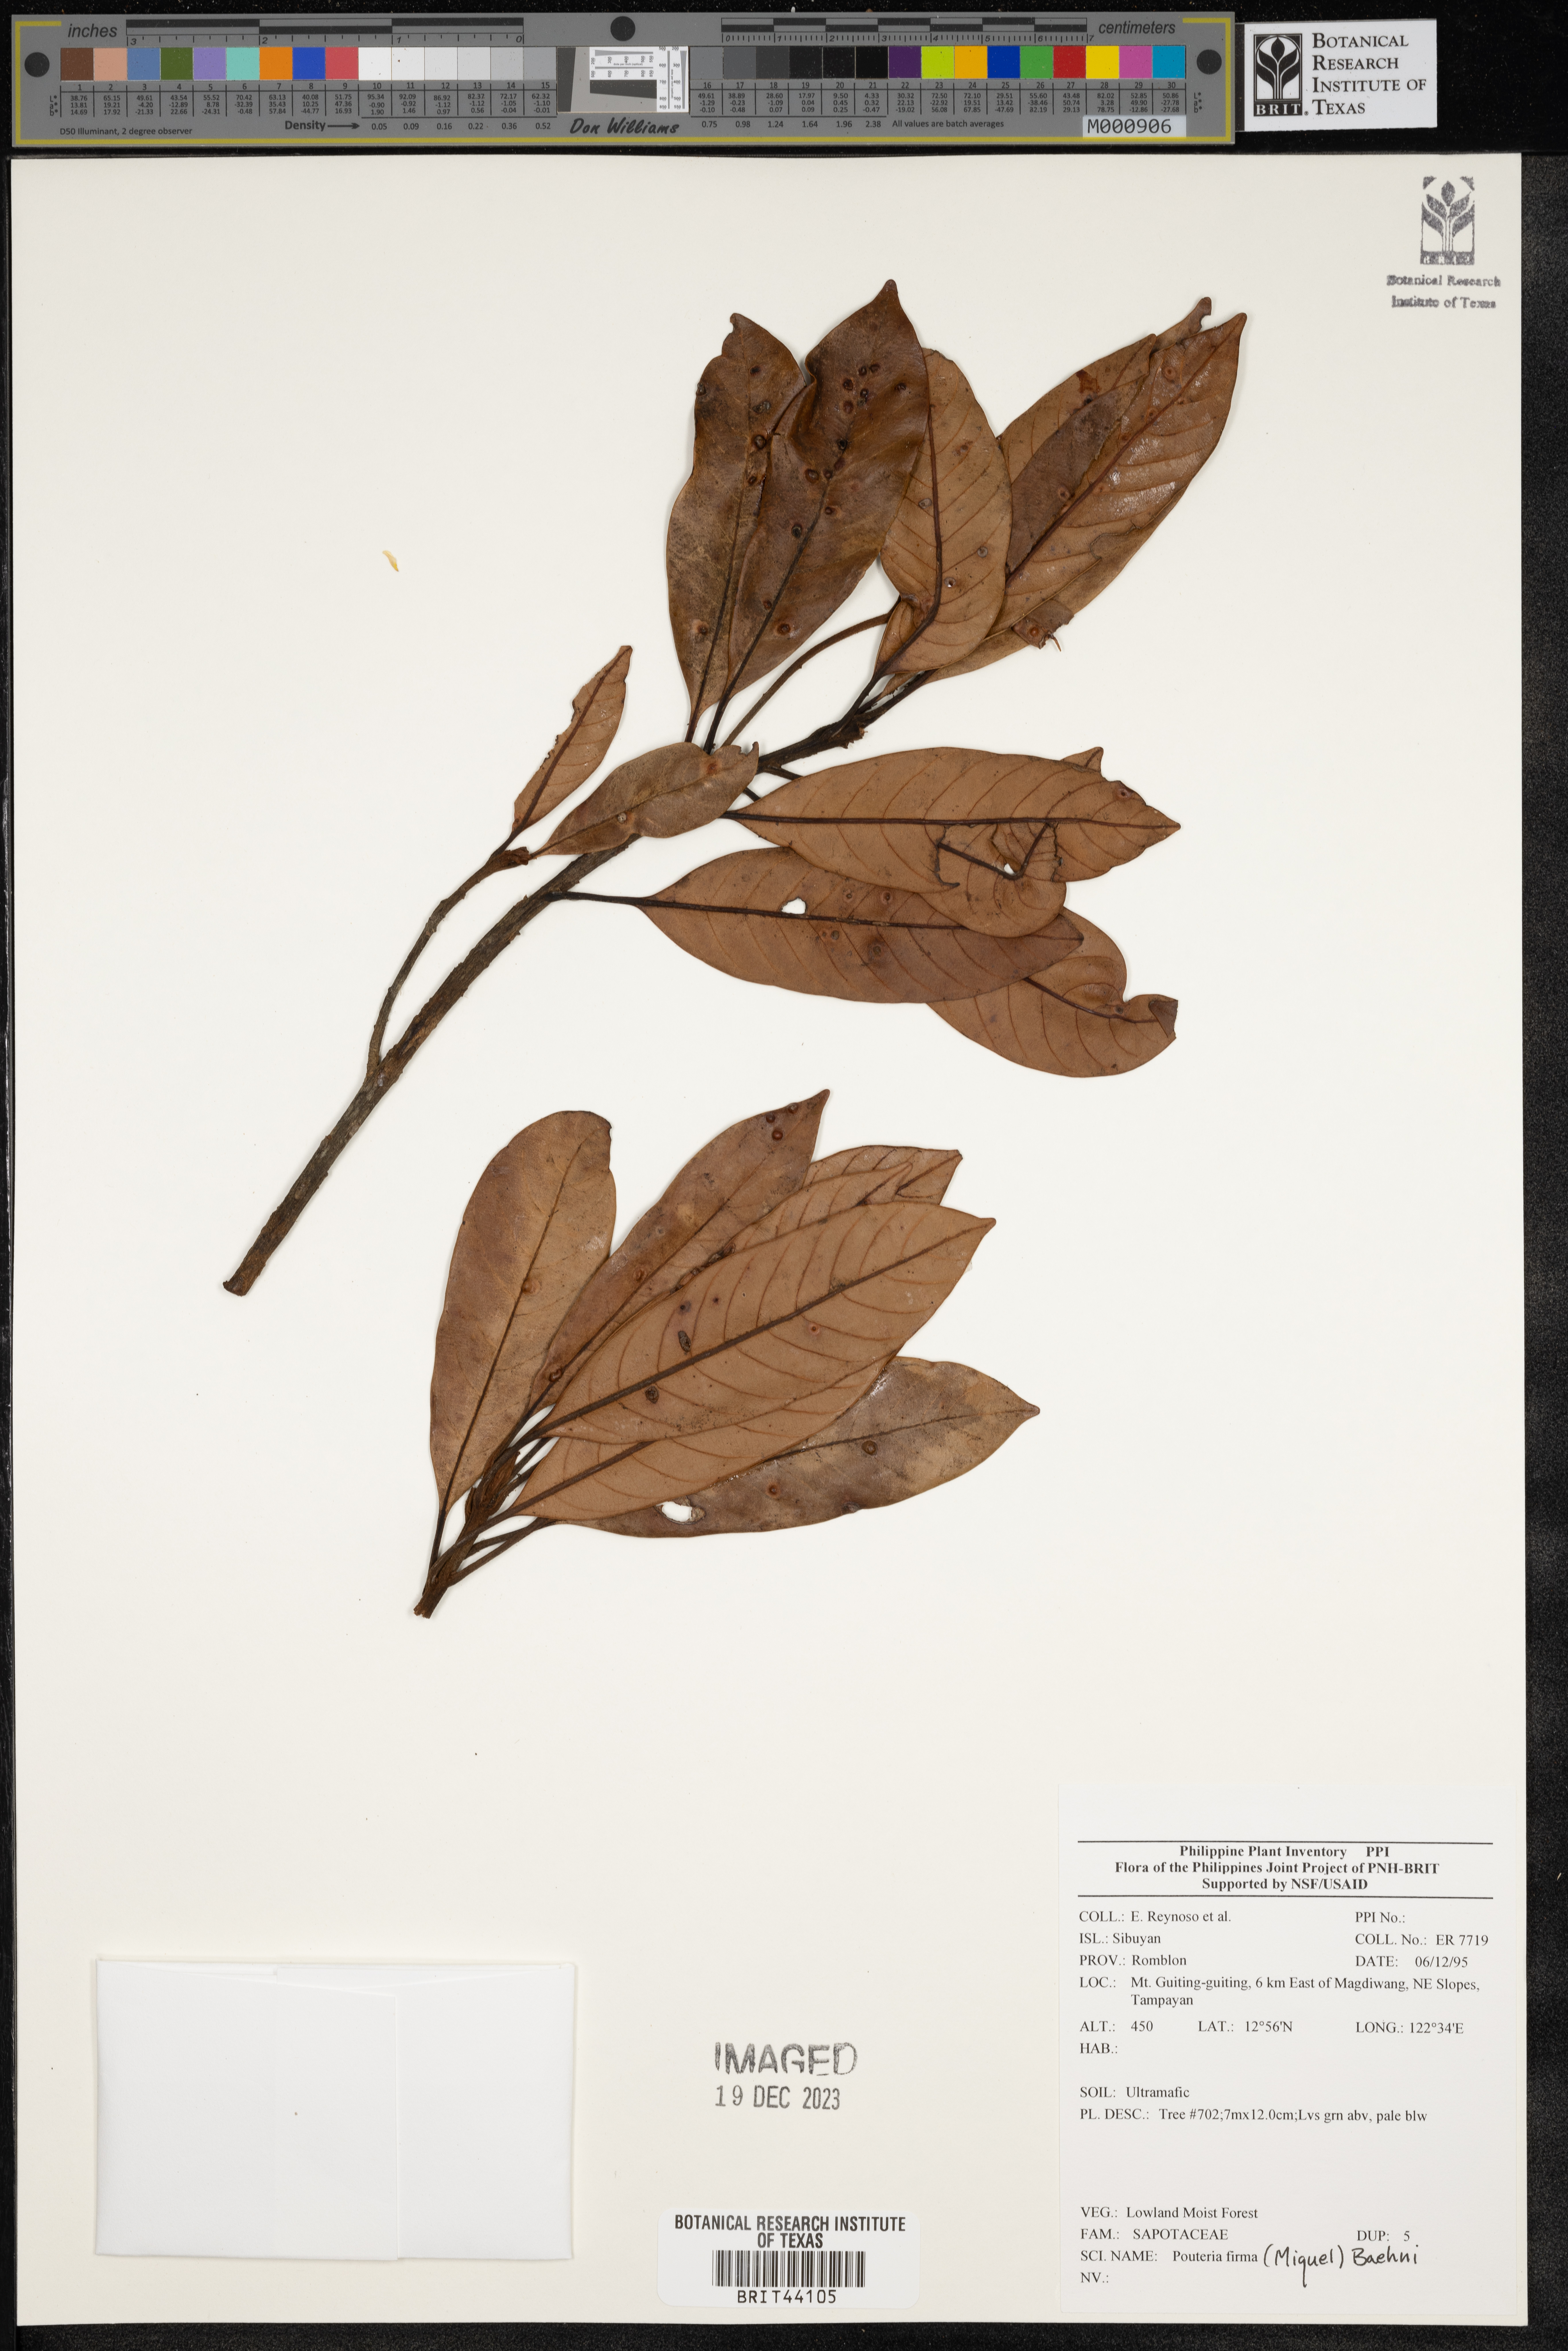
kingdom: Plantae
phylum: Tracheophyta
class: Magnoliopsida
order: Ericales
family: Sapotaceae
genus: Pleioluma
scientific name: Pleioluma firma
